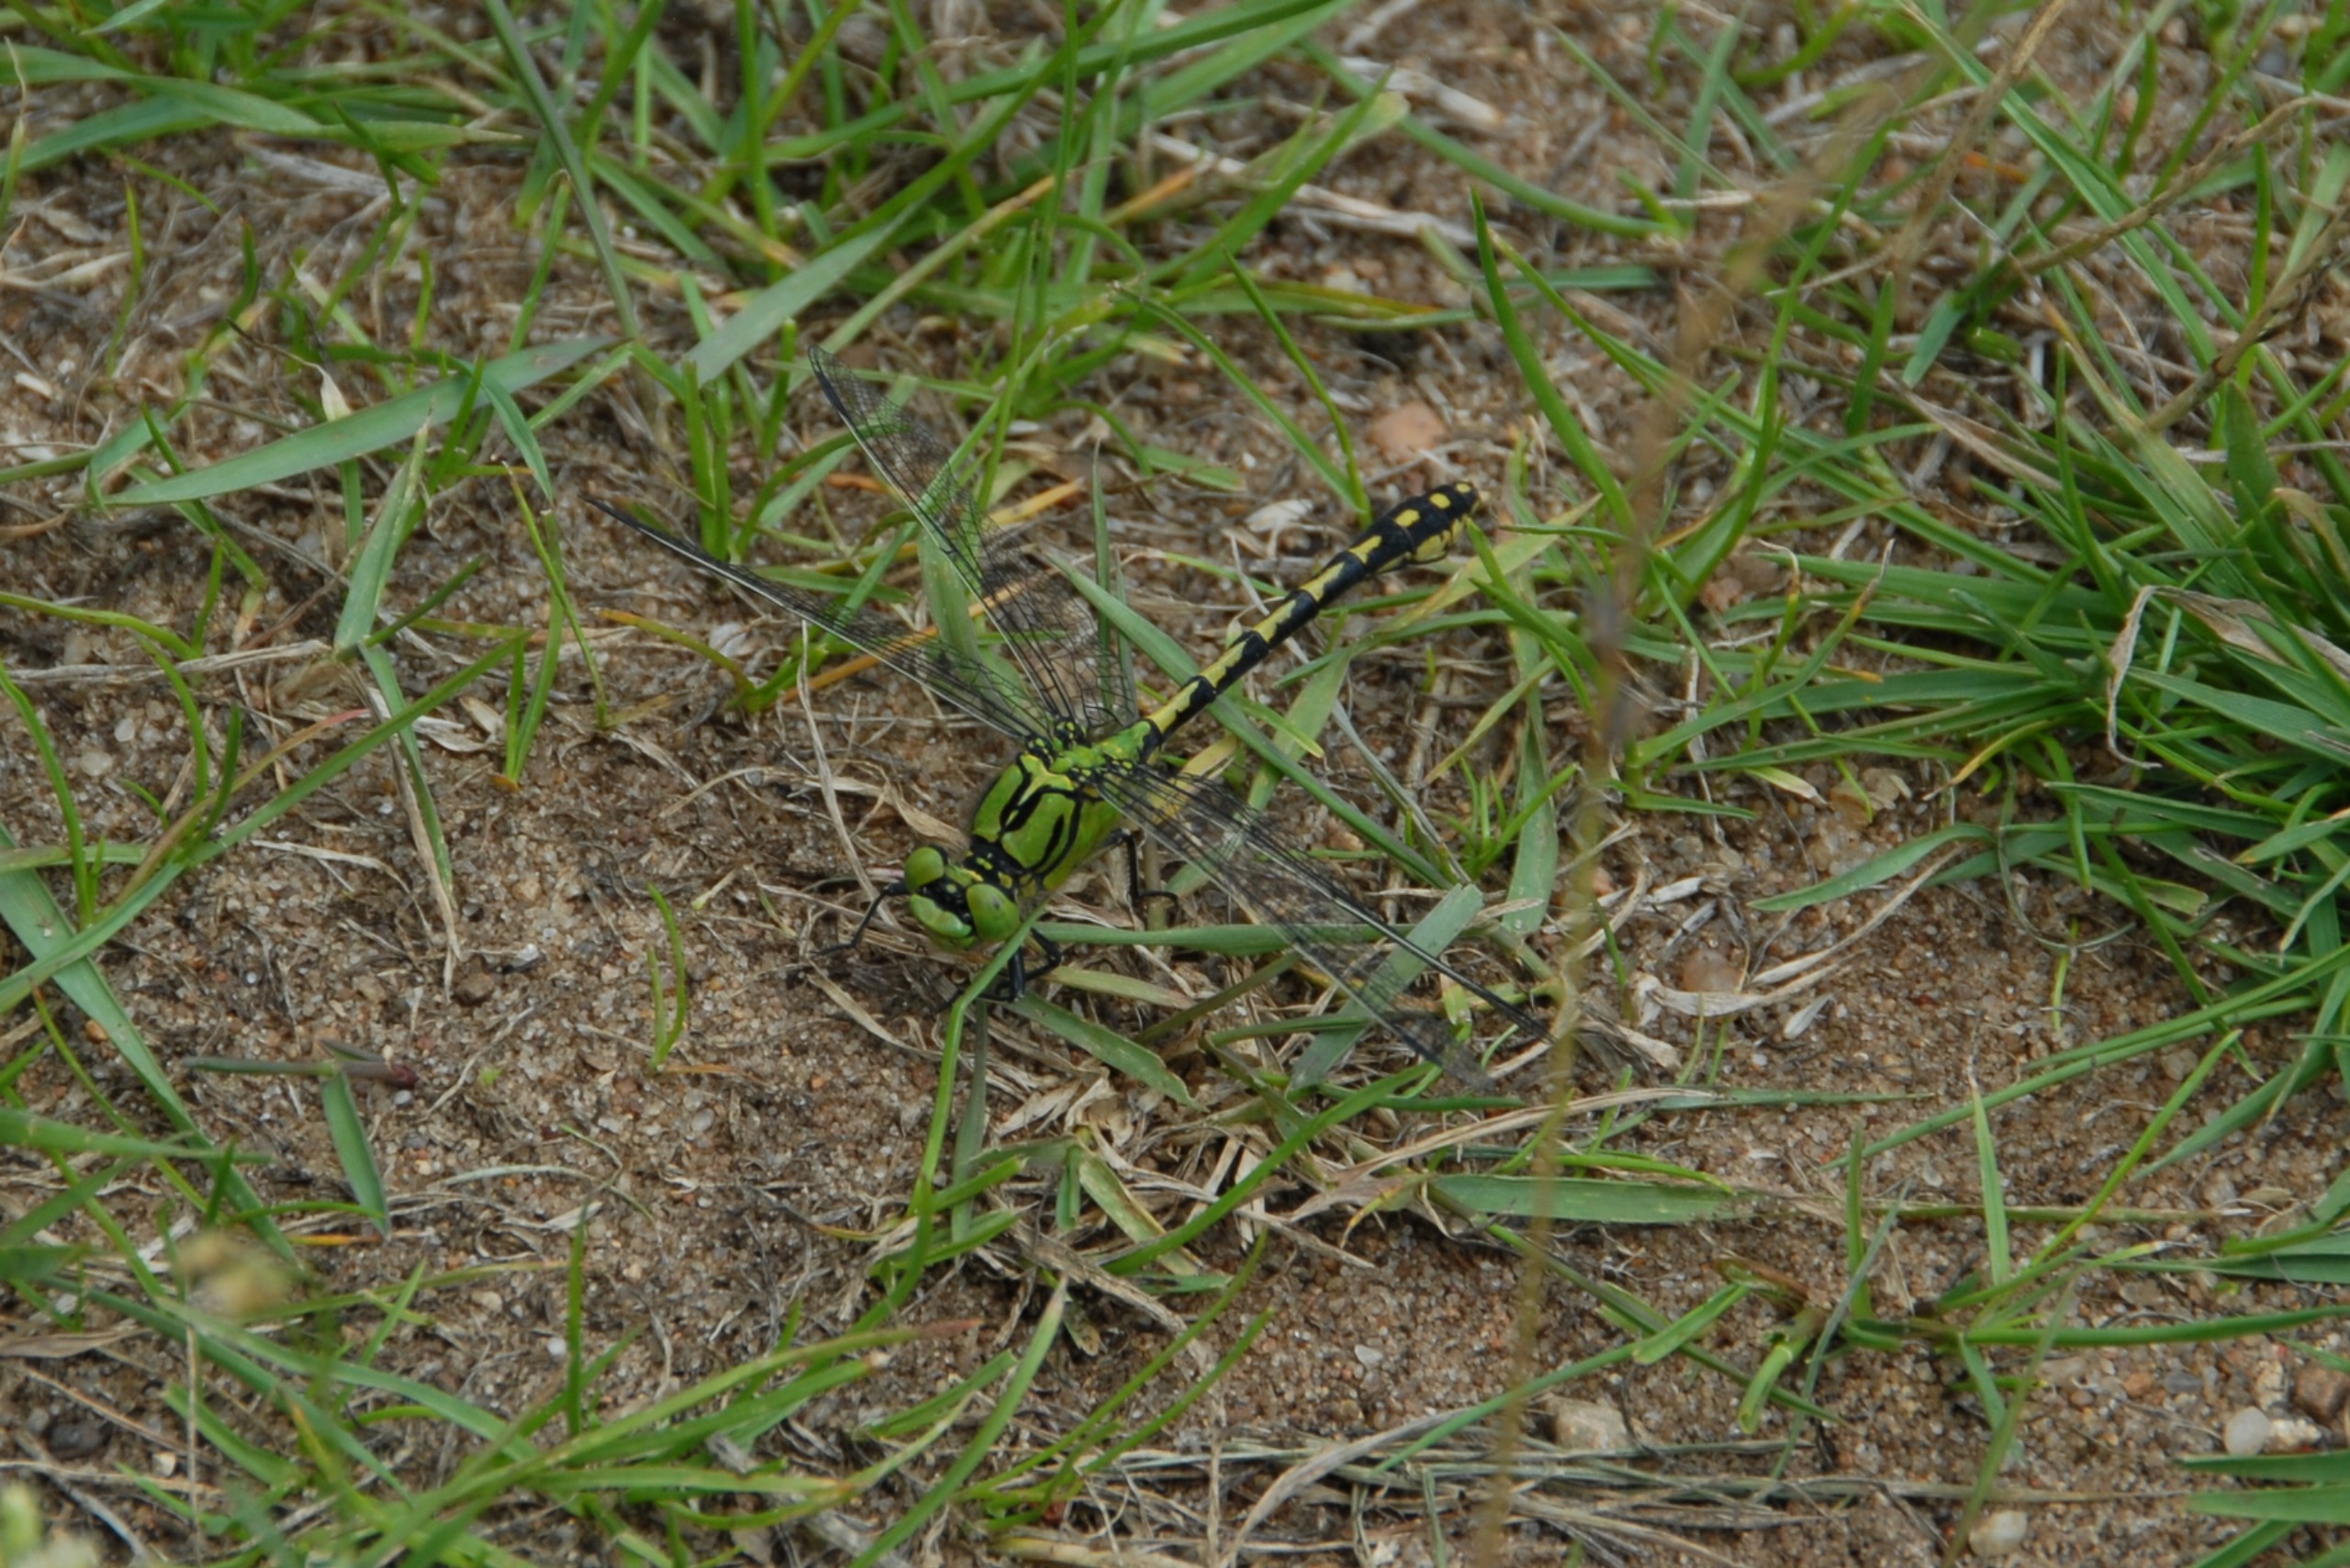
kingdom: Animalia
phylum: Arthropoda
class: Insecta
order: Odonata
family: Gomphidae
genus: Ophiogomphus
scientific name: Ophiogomphus cecilia
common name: Grøn kølleguldsmed
